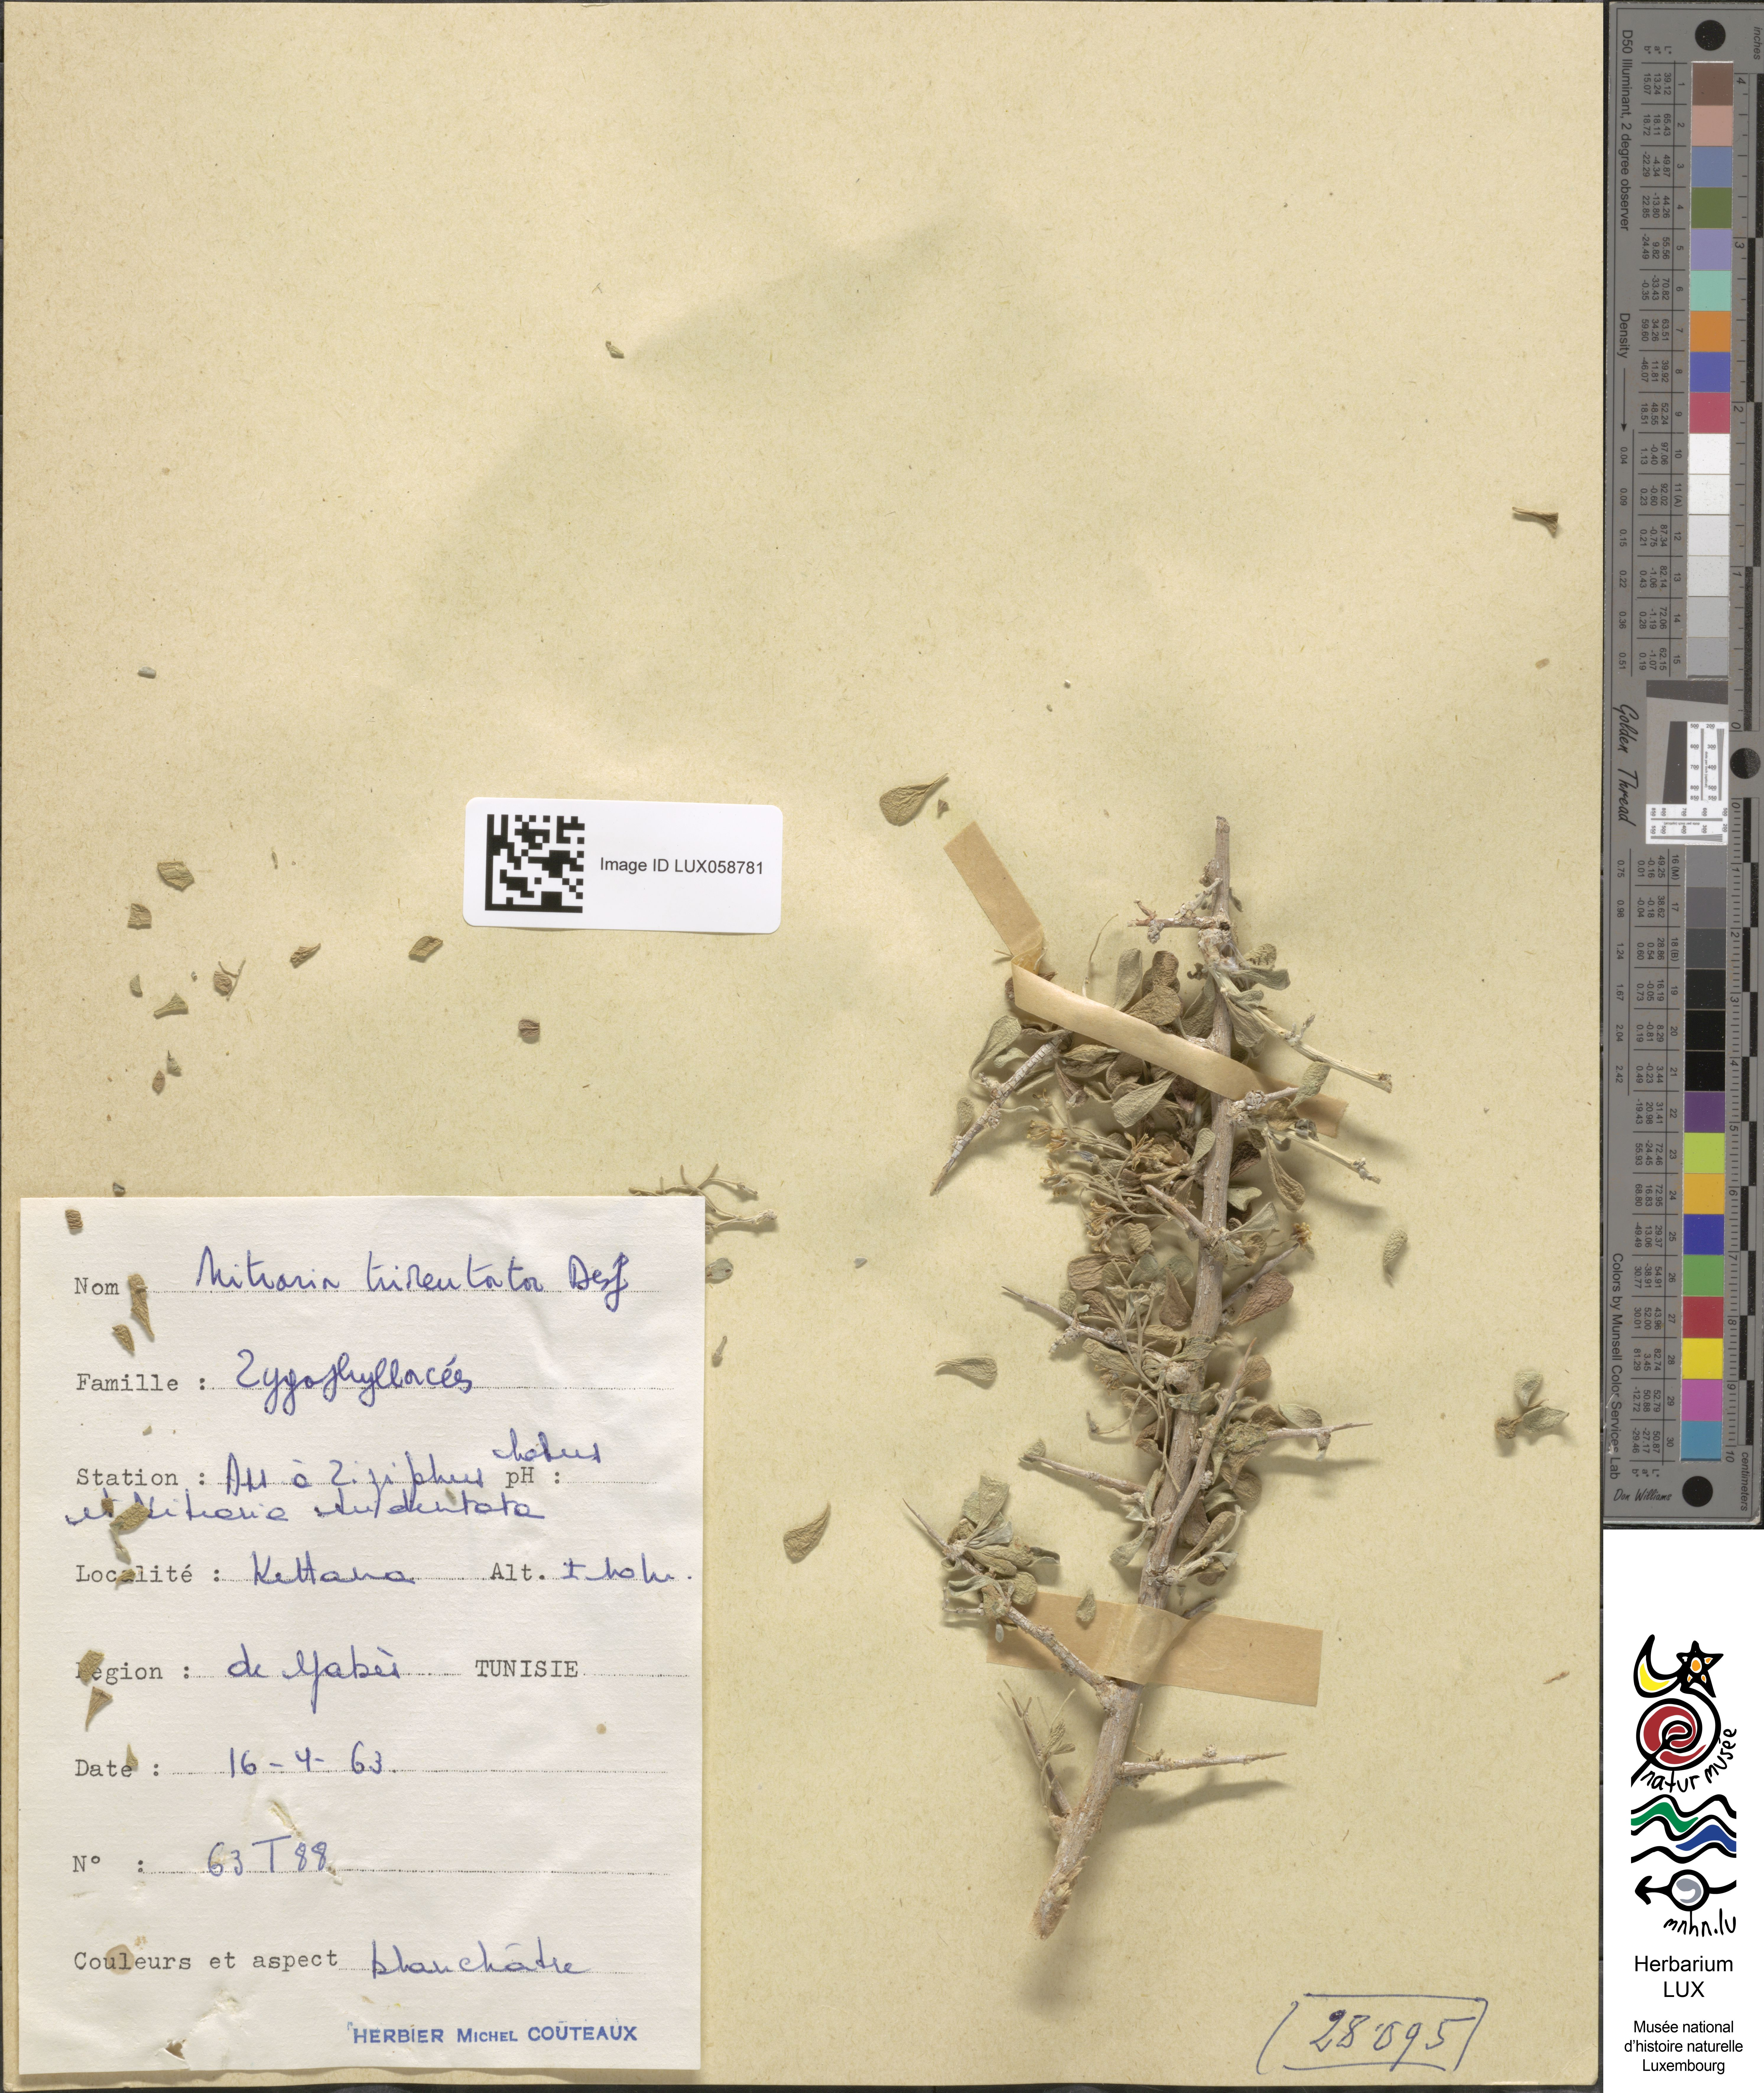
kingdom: Plantae
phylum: Tracheophyta
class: Magnoliopsida
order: Sapindales
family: Nitrariaceae
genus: Nitraria
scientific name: Nitraria retusa
